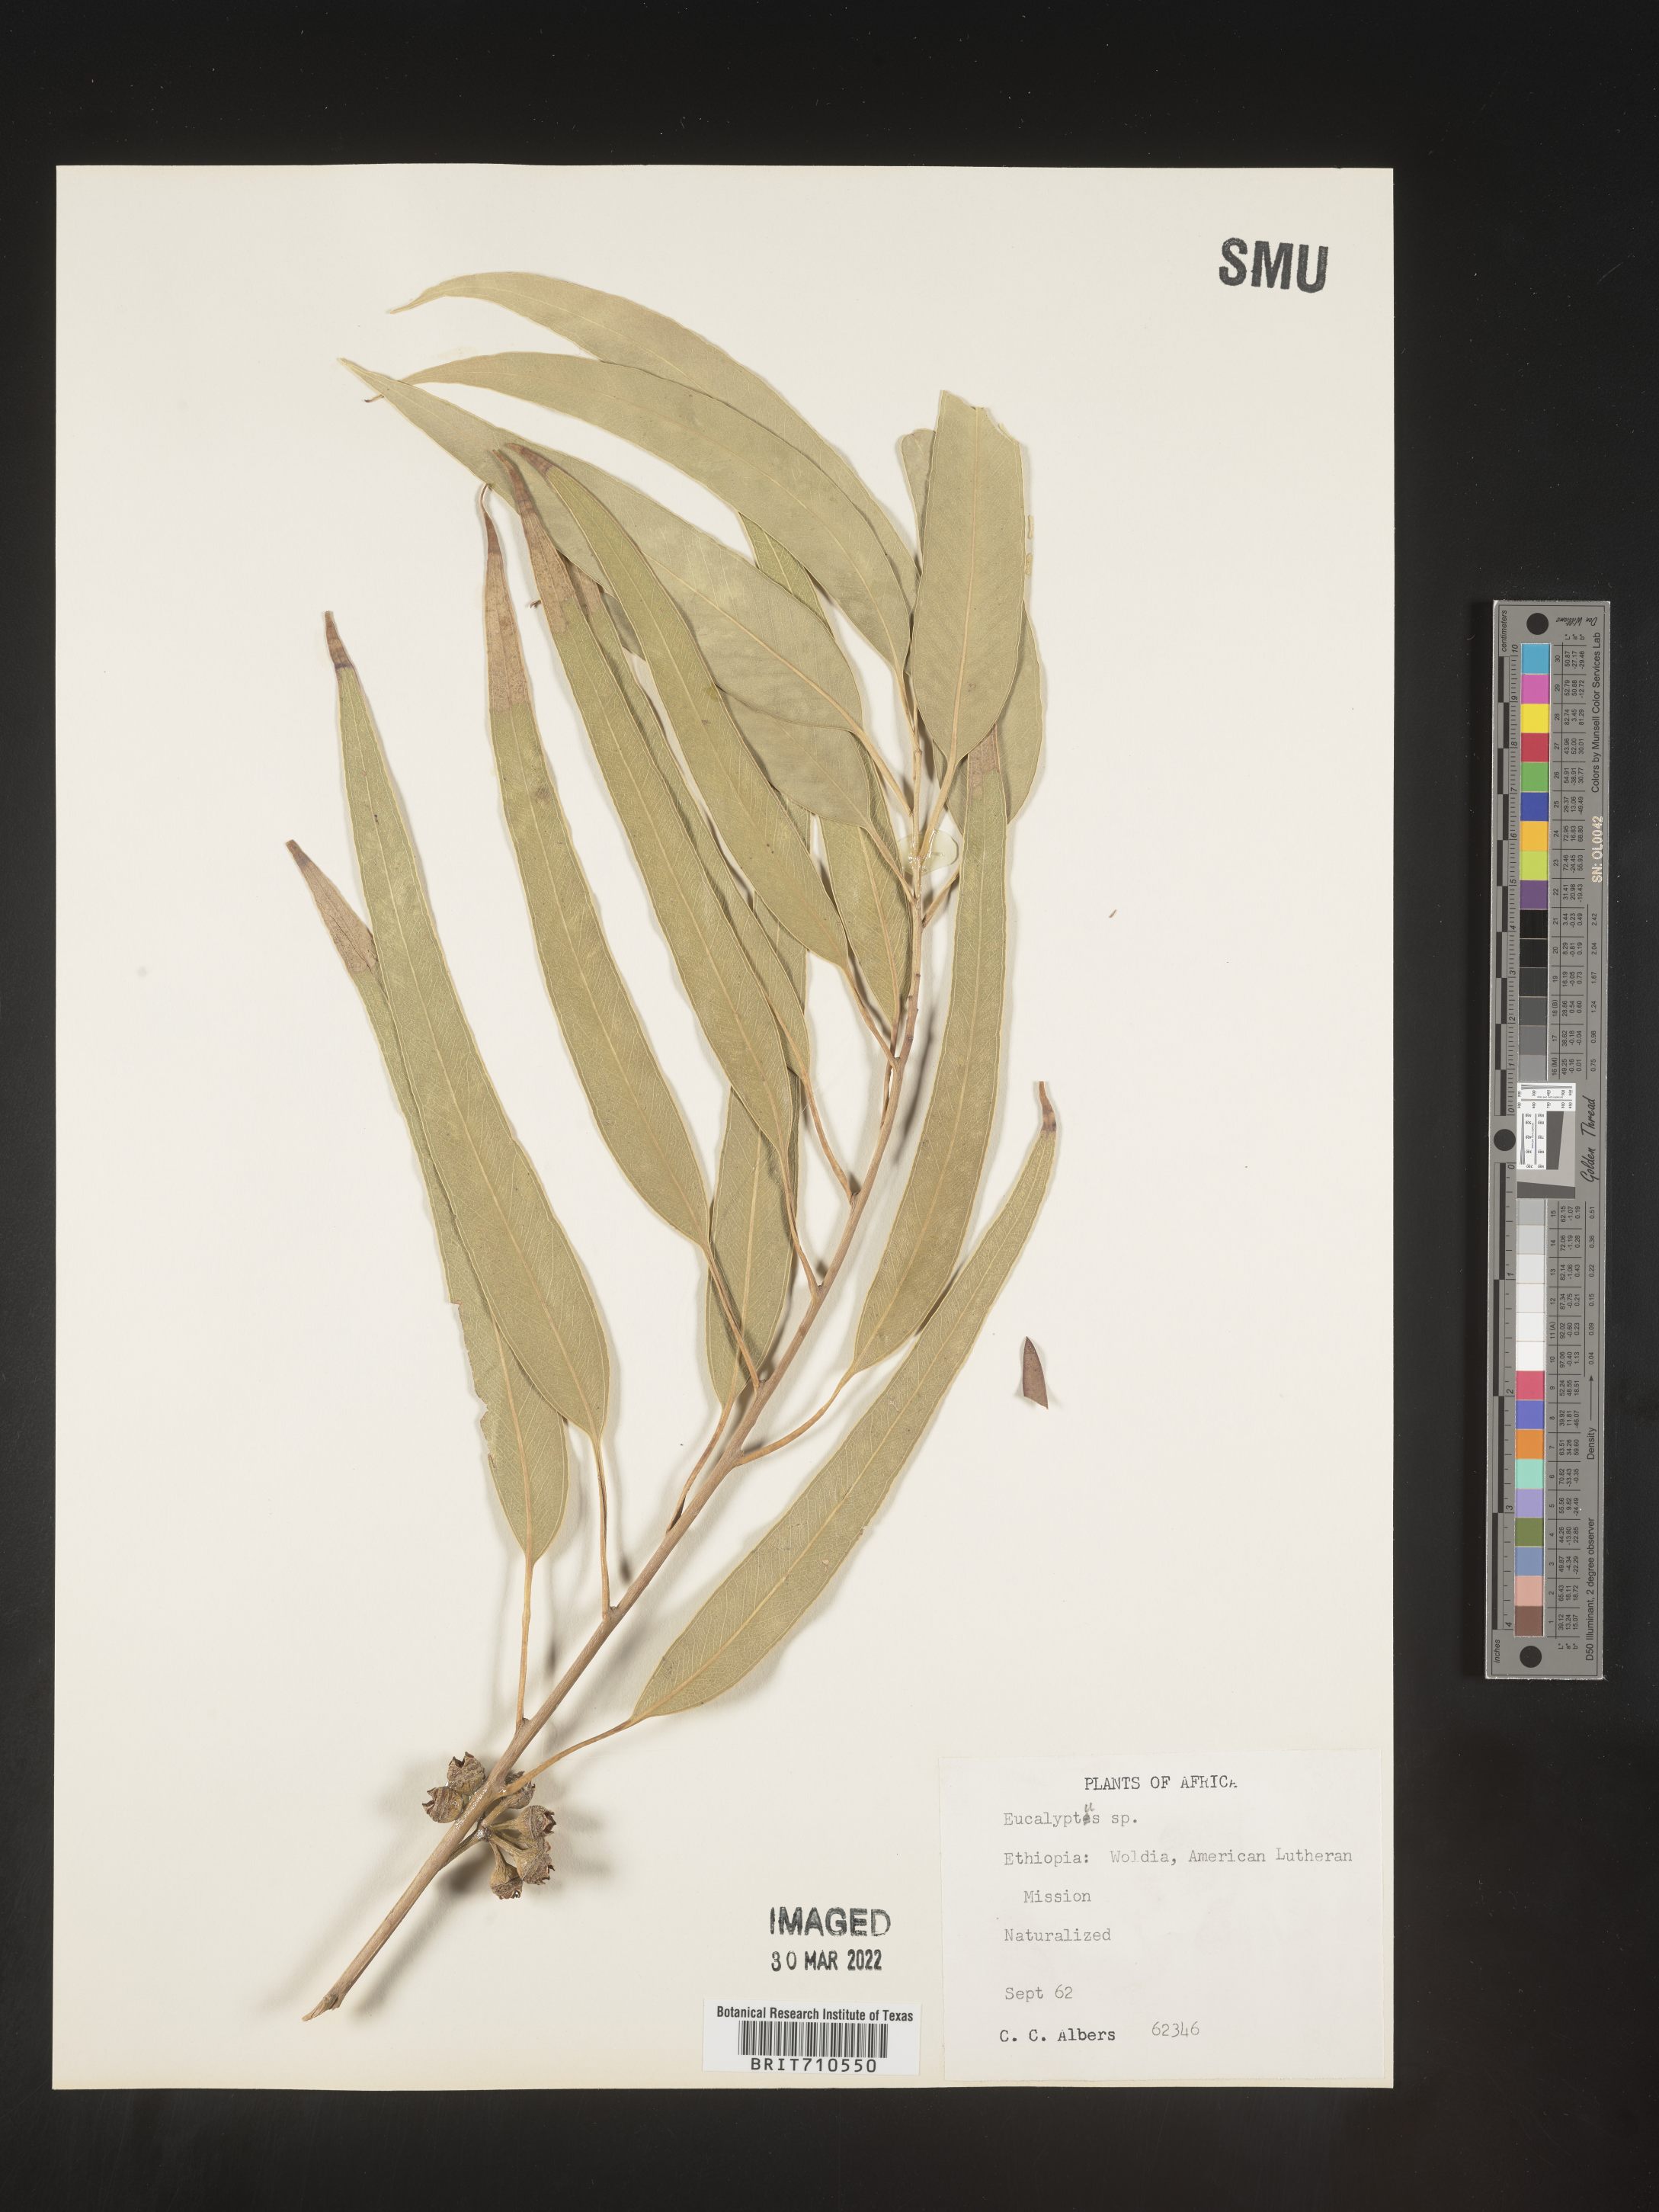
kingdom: Plantae
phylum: Tracheophyta
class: Magnoliopsida
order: Myrtales
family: Myrtaceae
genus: Eucalyptus
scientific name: Eucalyptus
